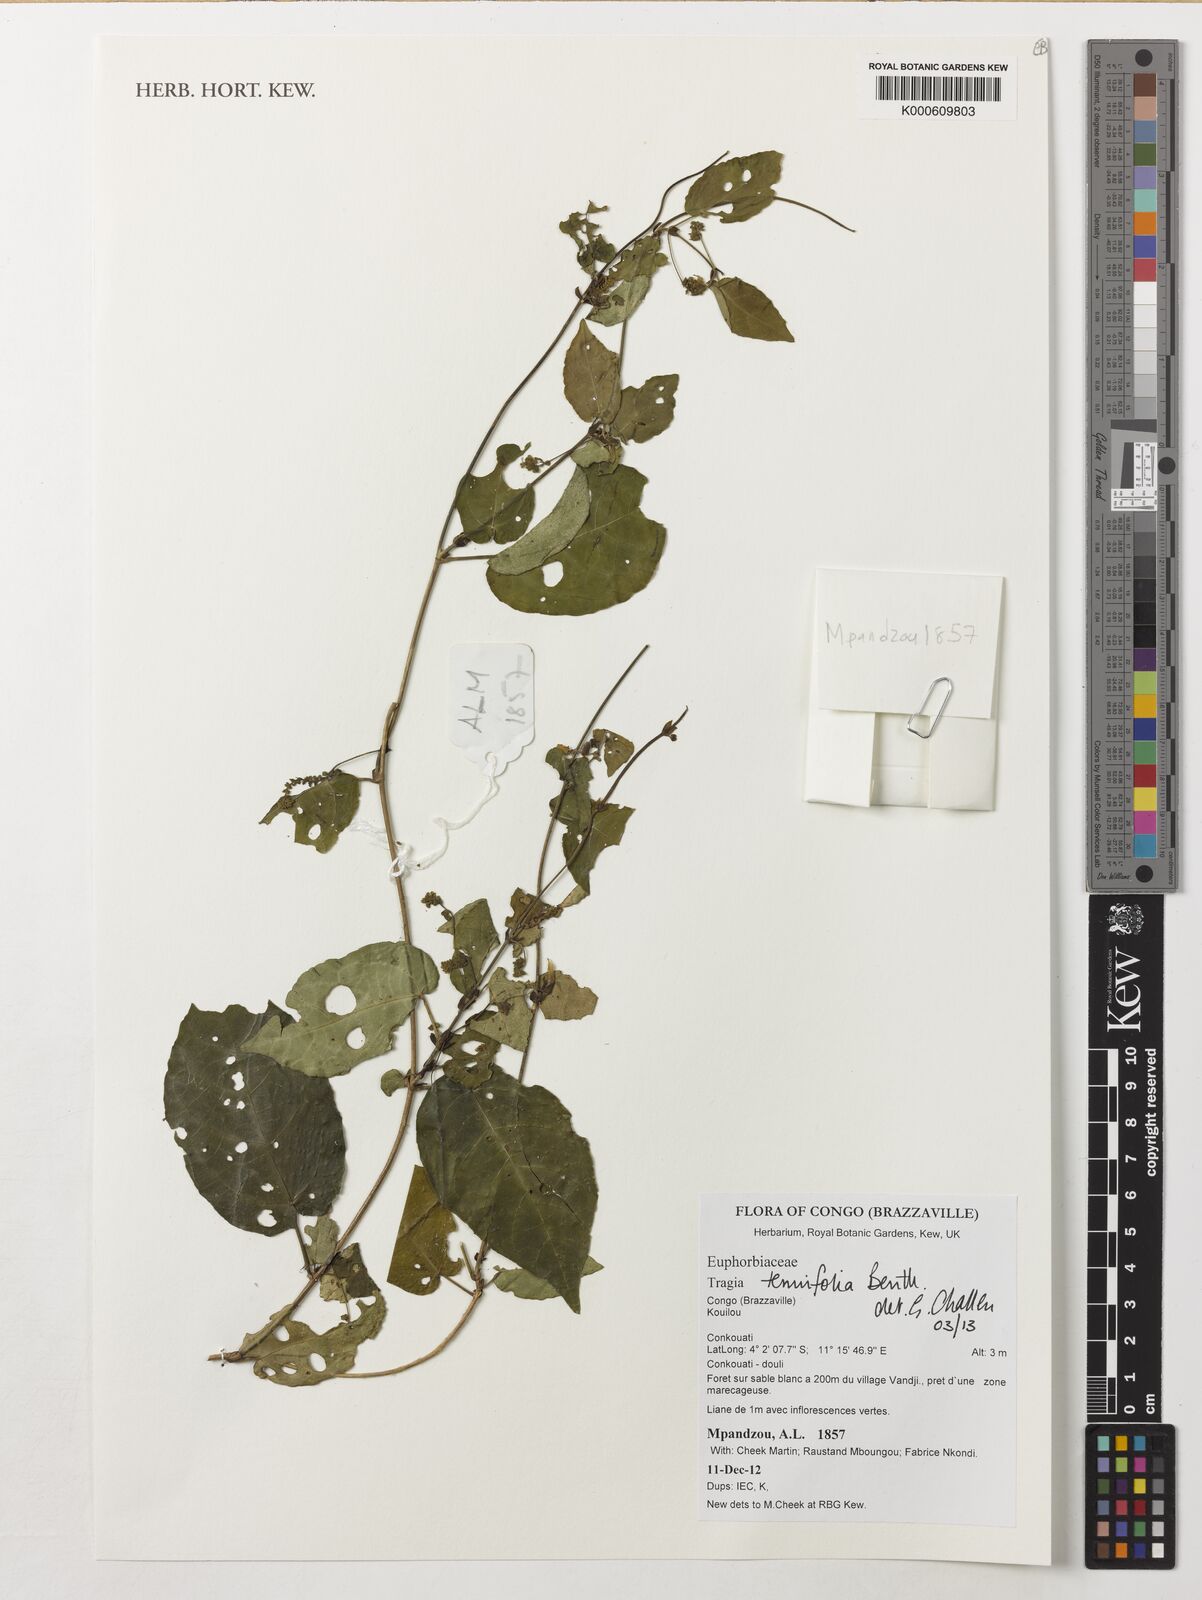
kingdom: Plantae
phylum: Tracheophyta
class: Magnoliopsida
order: Malpighiales
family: Euphorbiaceae
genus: Tragia
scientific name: Tragia tenuifolia
